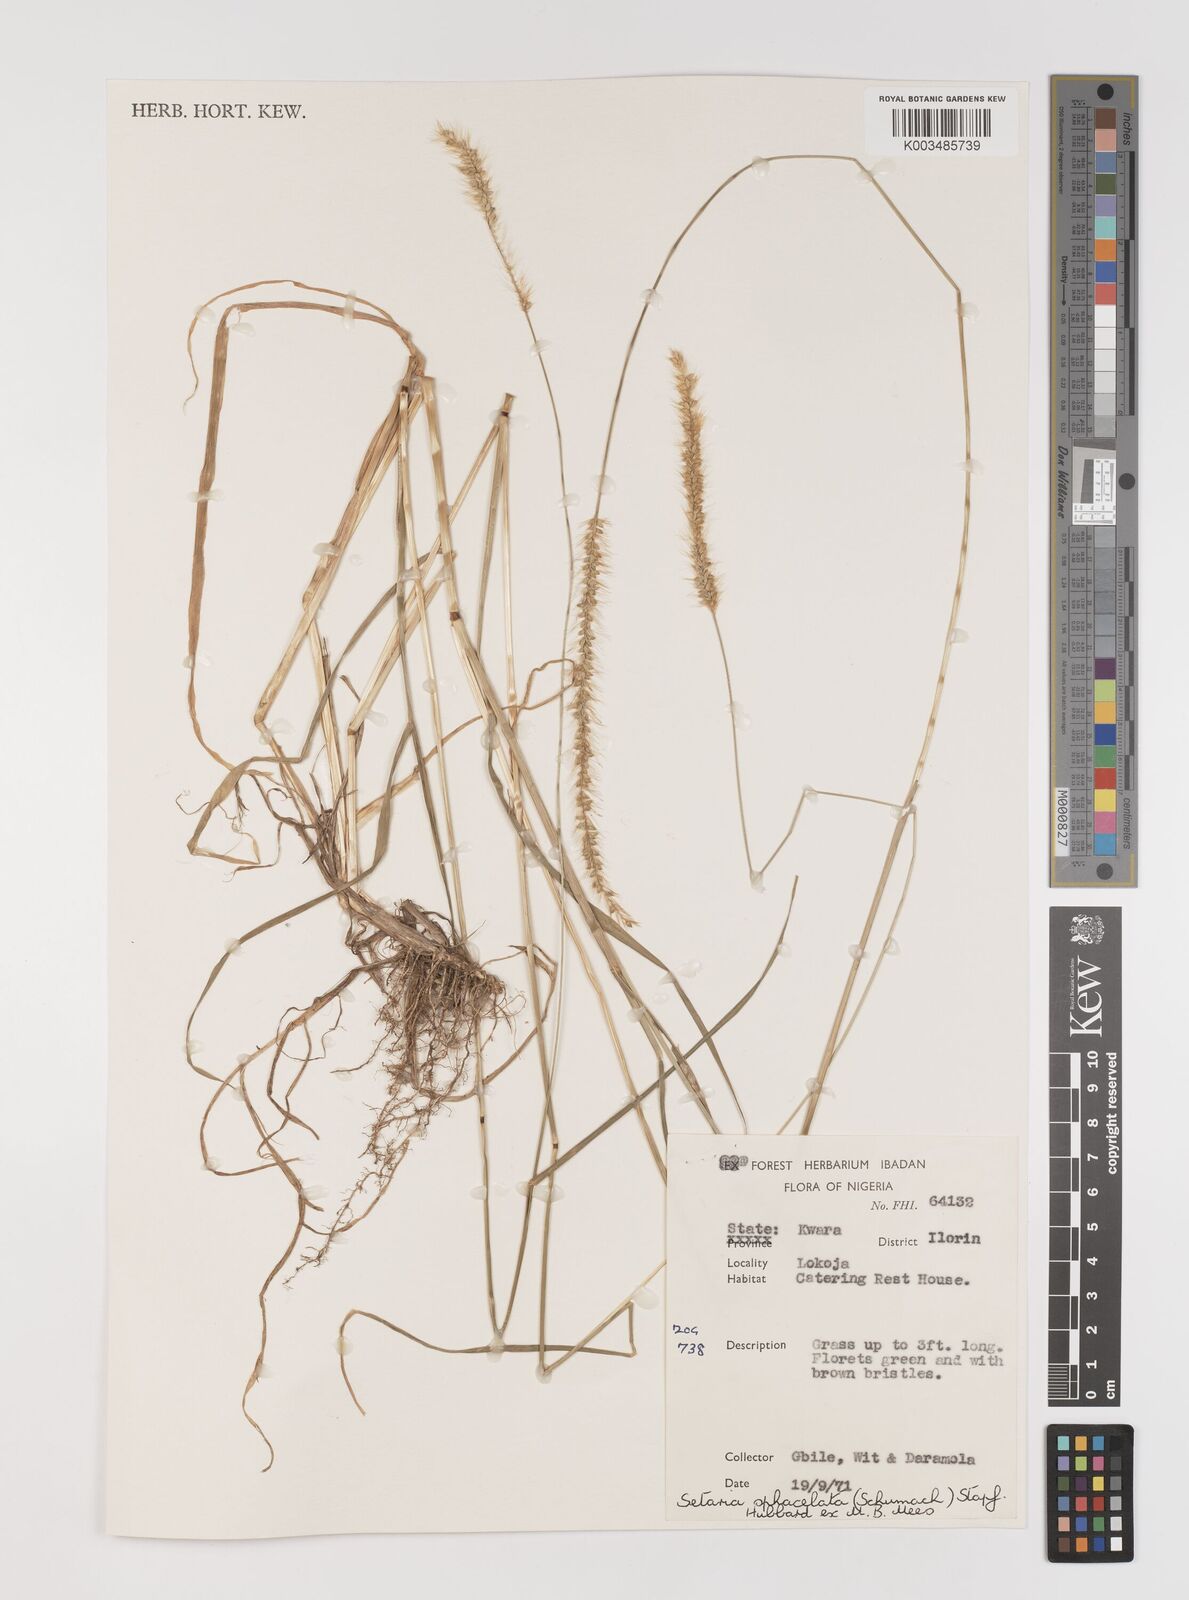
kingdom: Plantae
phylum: Tracheophyta
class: Liliopsida
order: Poales
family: Poaceae
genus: Setaria
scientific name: Setaria sphacelata
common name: African bristlegrass
